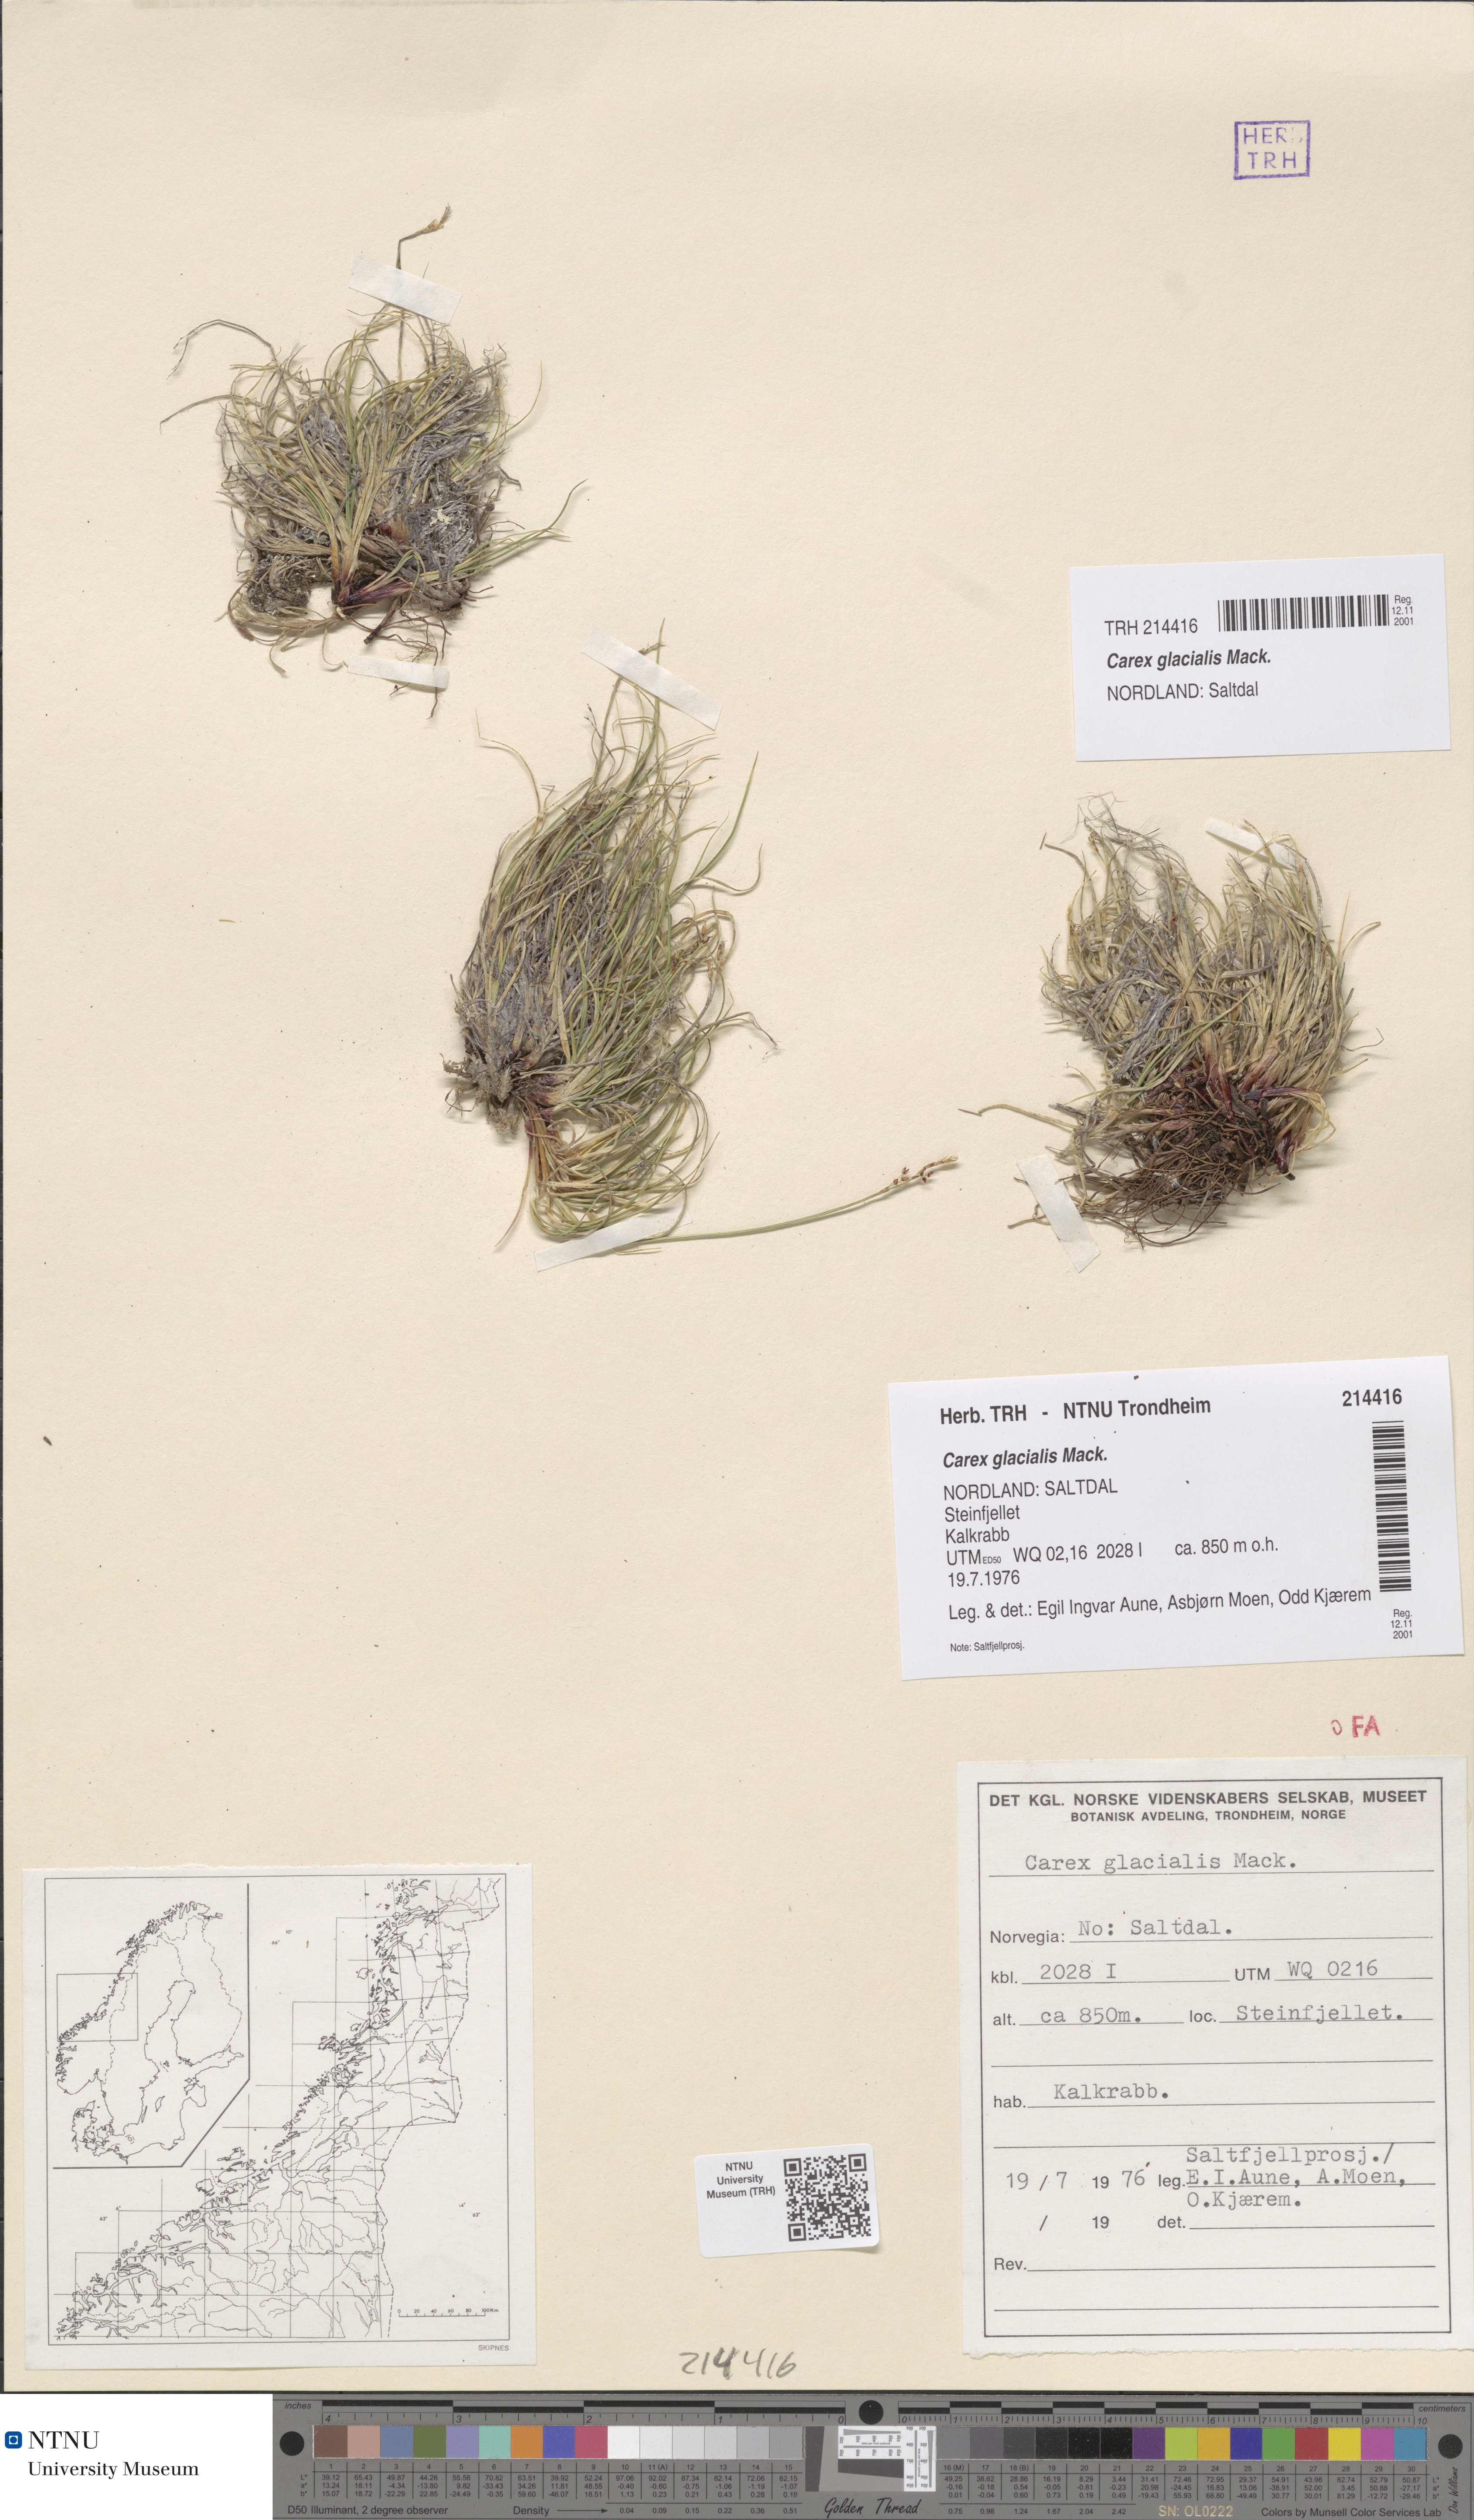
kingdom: Plantae
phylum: Tracheophyta
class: Liliopsida
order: Poales
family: Cyperaceae
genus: Carex
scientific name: Carex glacialis
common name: Newfoundland sedge
